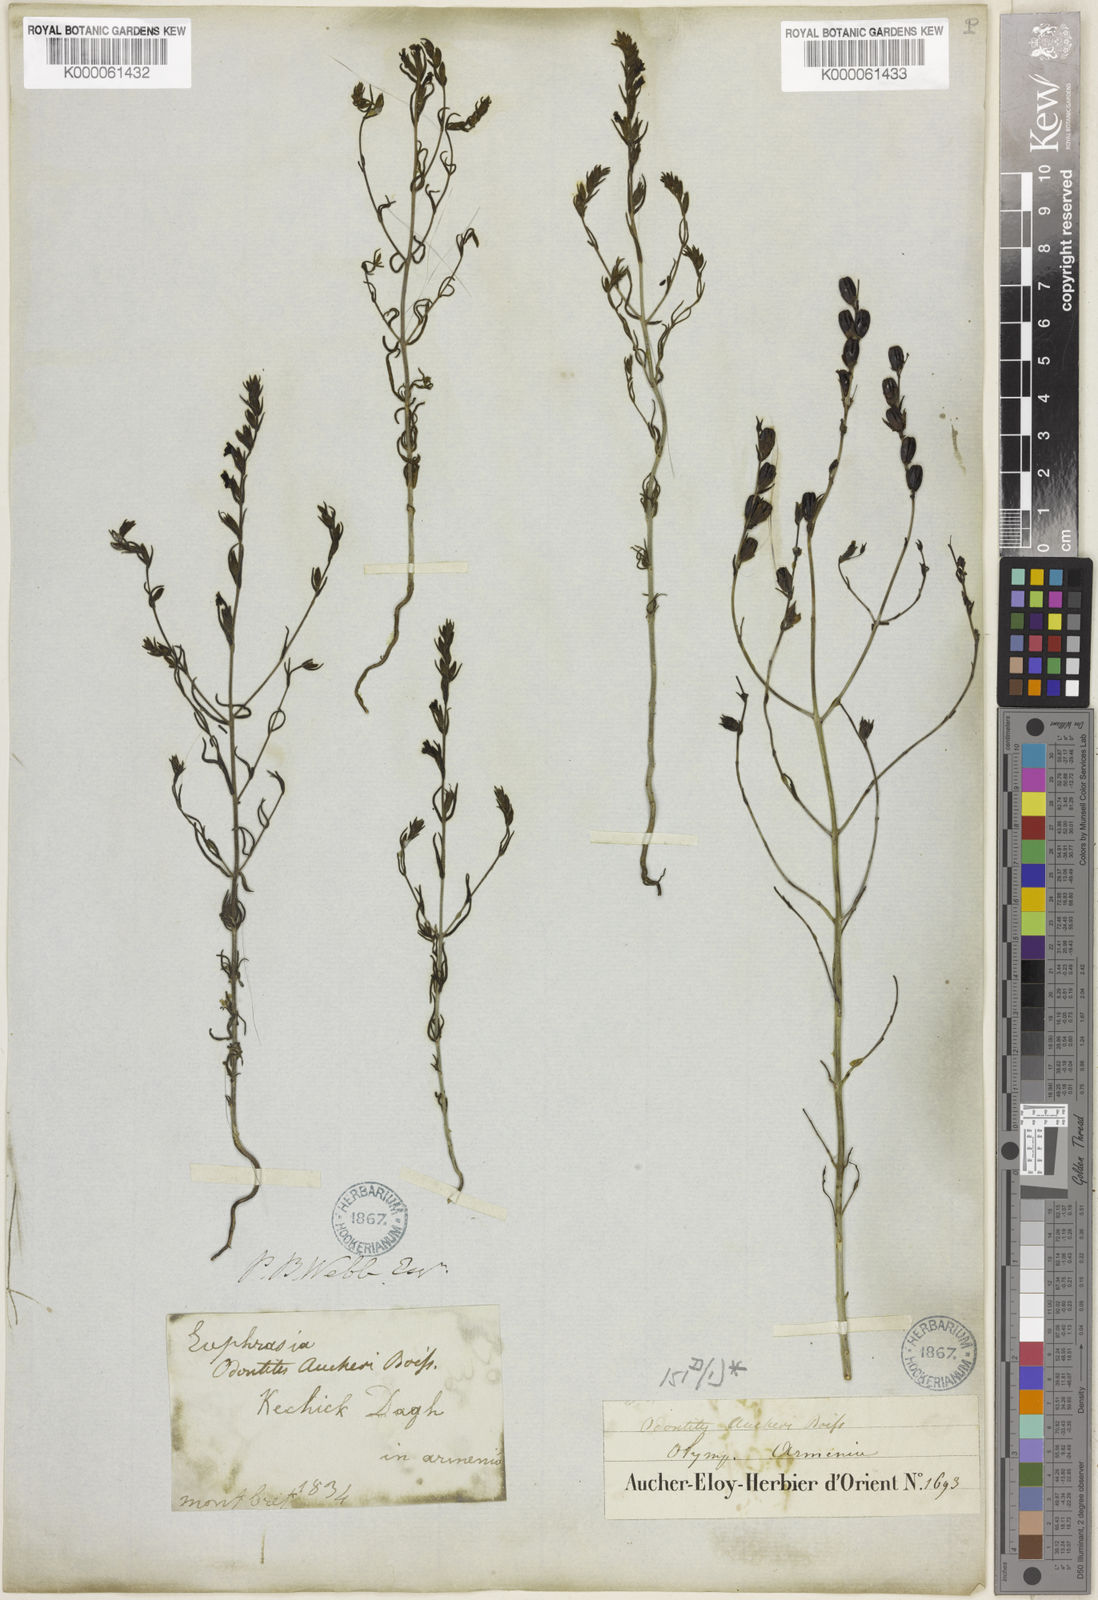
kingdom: Plantae
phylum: Tracheophyta
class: Magnoliopsida
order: Lamiales
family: Orobanchaceae
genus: Odontites
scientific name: Odontites aucheri
